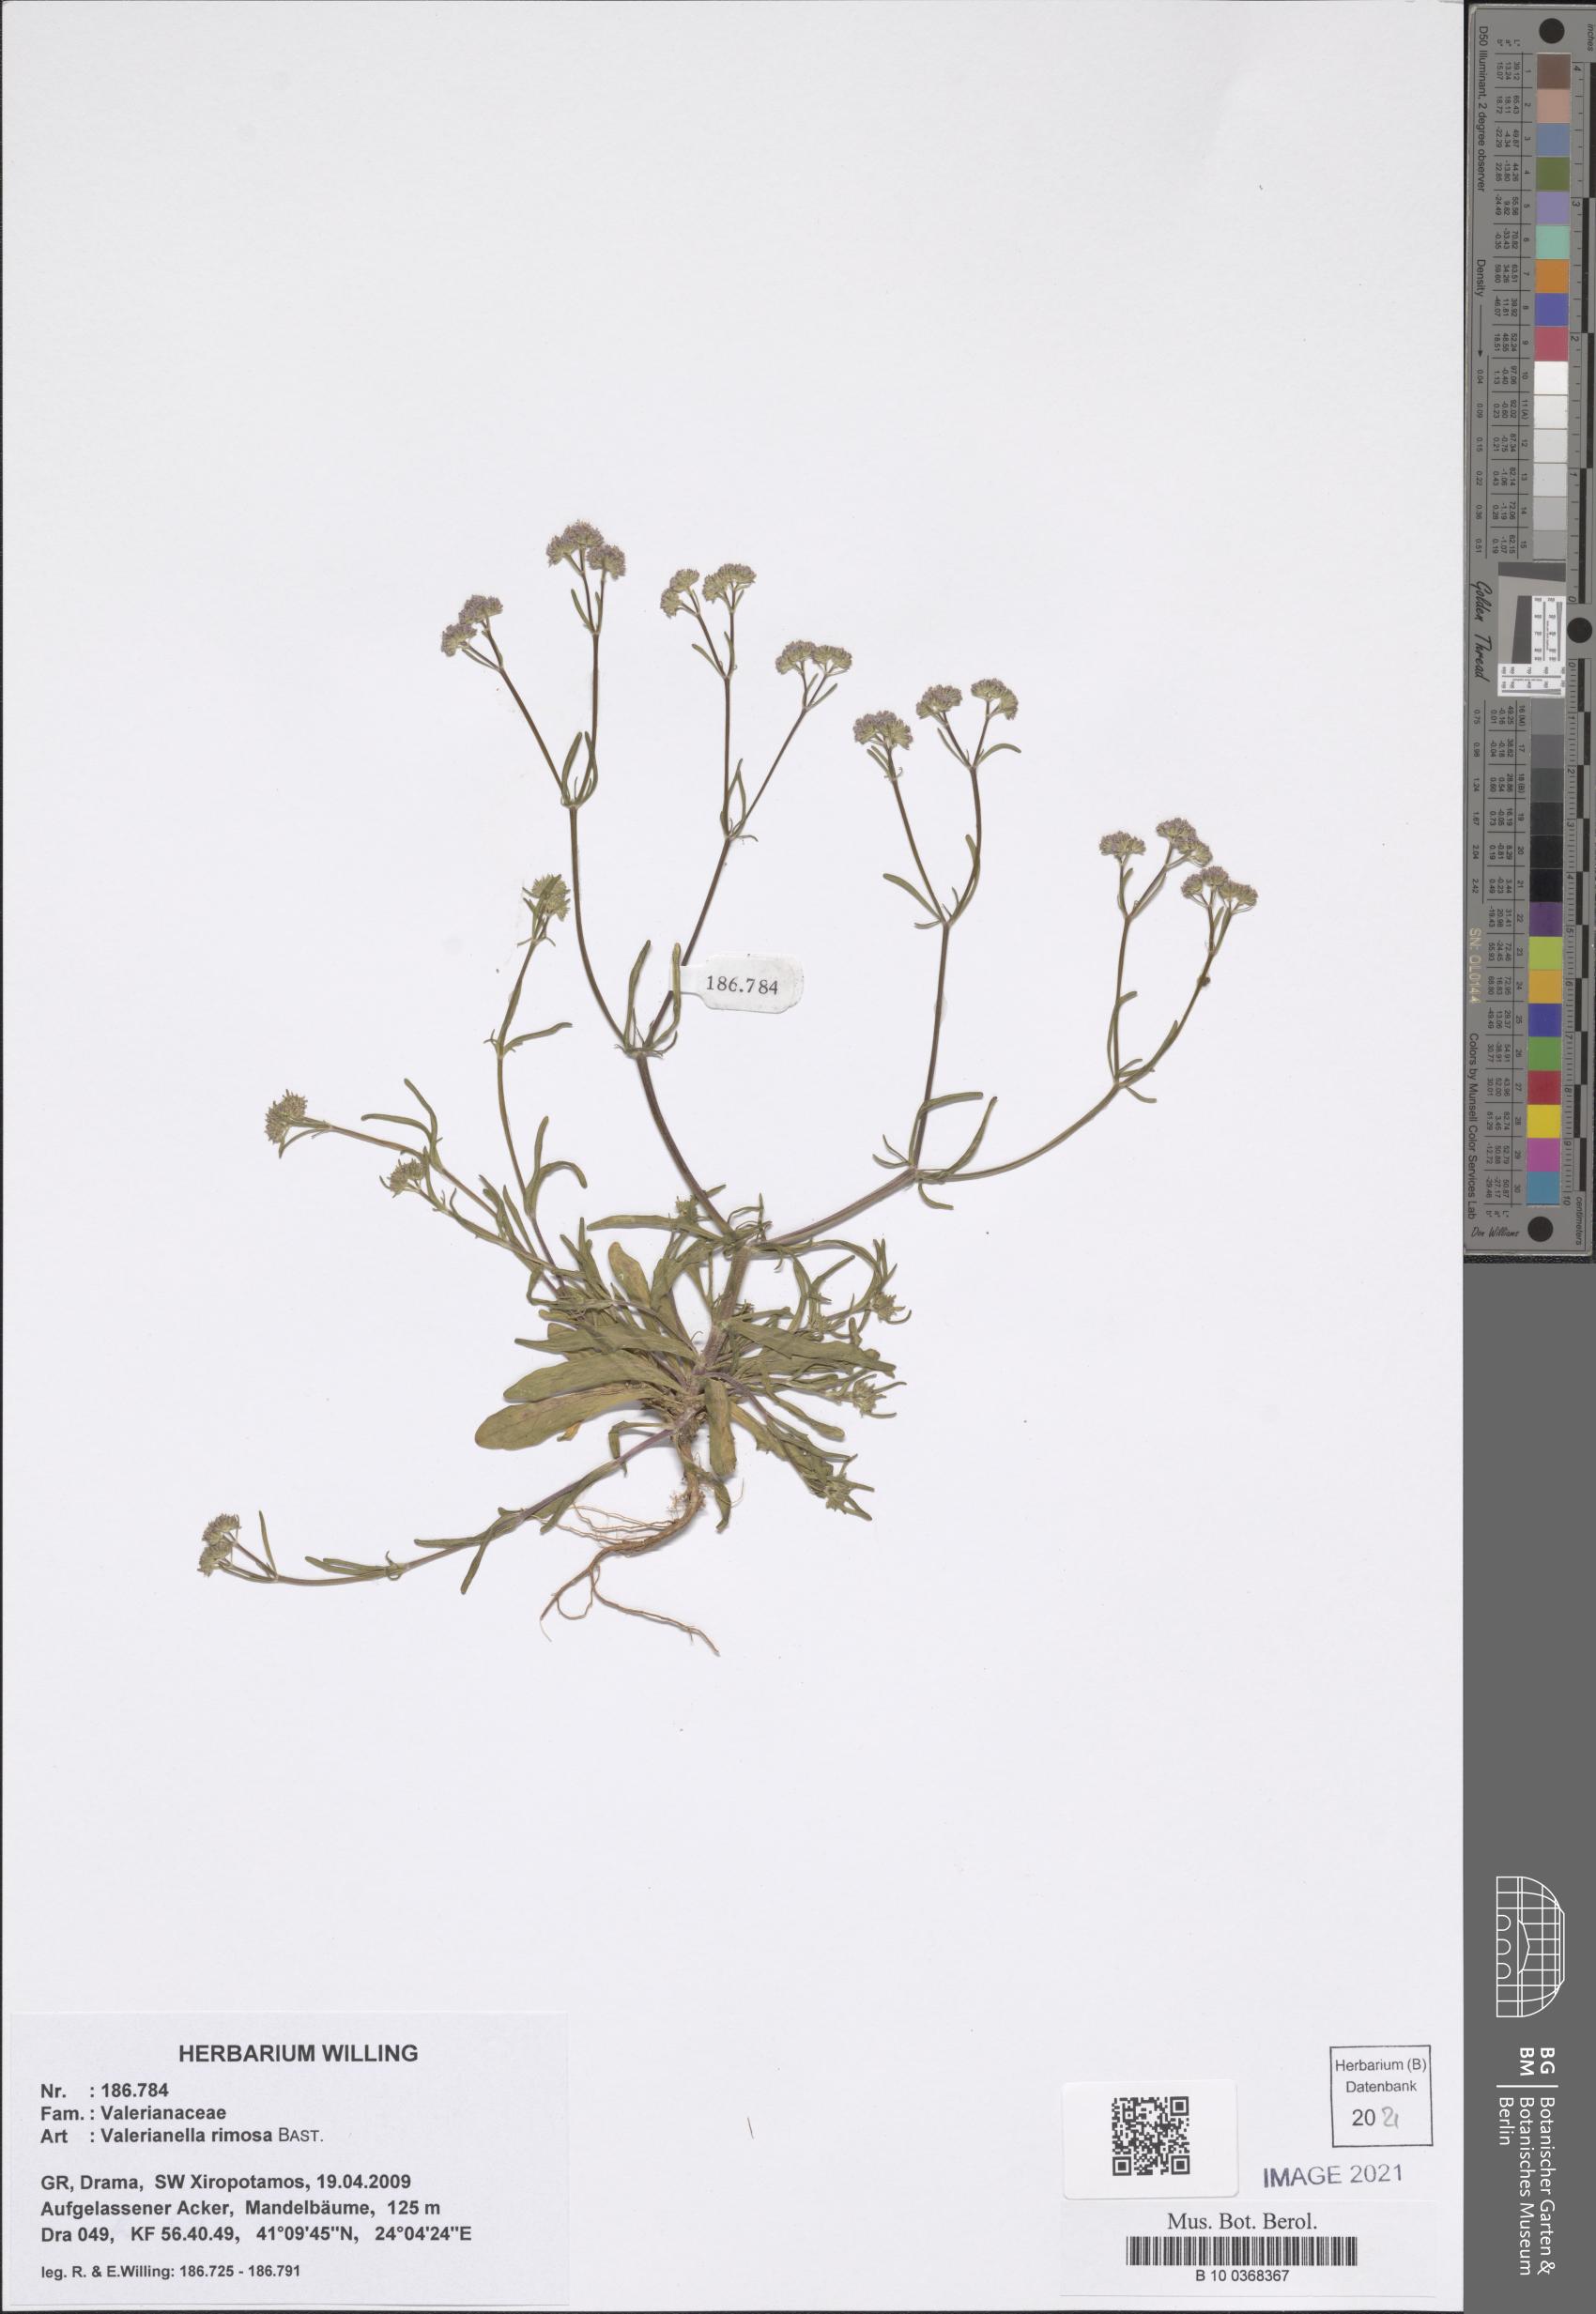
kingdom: Plantae
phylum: Tracheophyta
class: Magnoliopsida
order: Dipsacales
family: Caprifoliaceae
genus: Valerianella
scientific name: Valerianella rimosa
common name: Broad-fruited cornsalad
